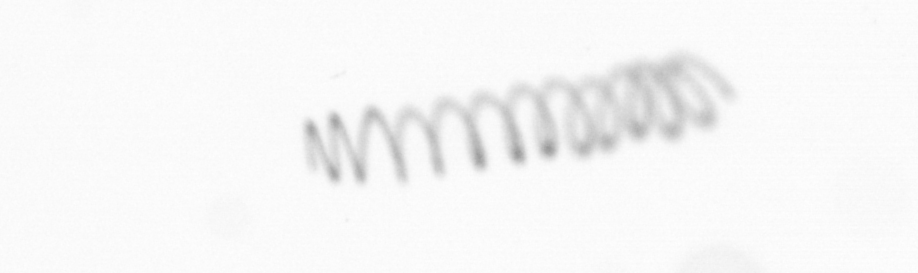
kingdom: Chromista
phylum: Ochrophyta
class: Bacillariophyceae
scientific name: Bacillariophyceae
